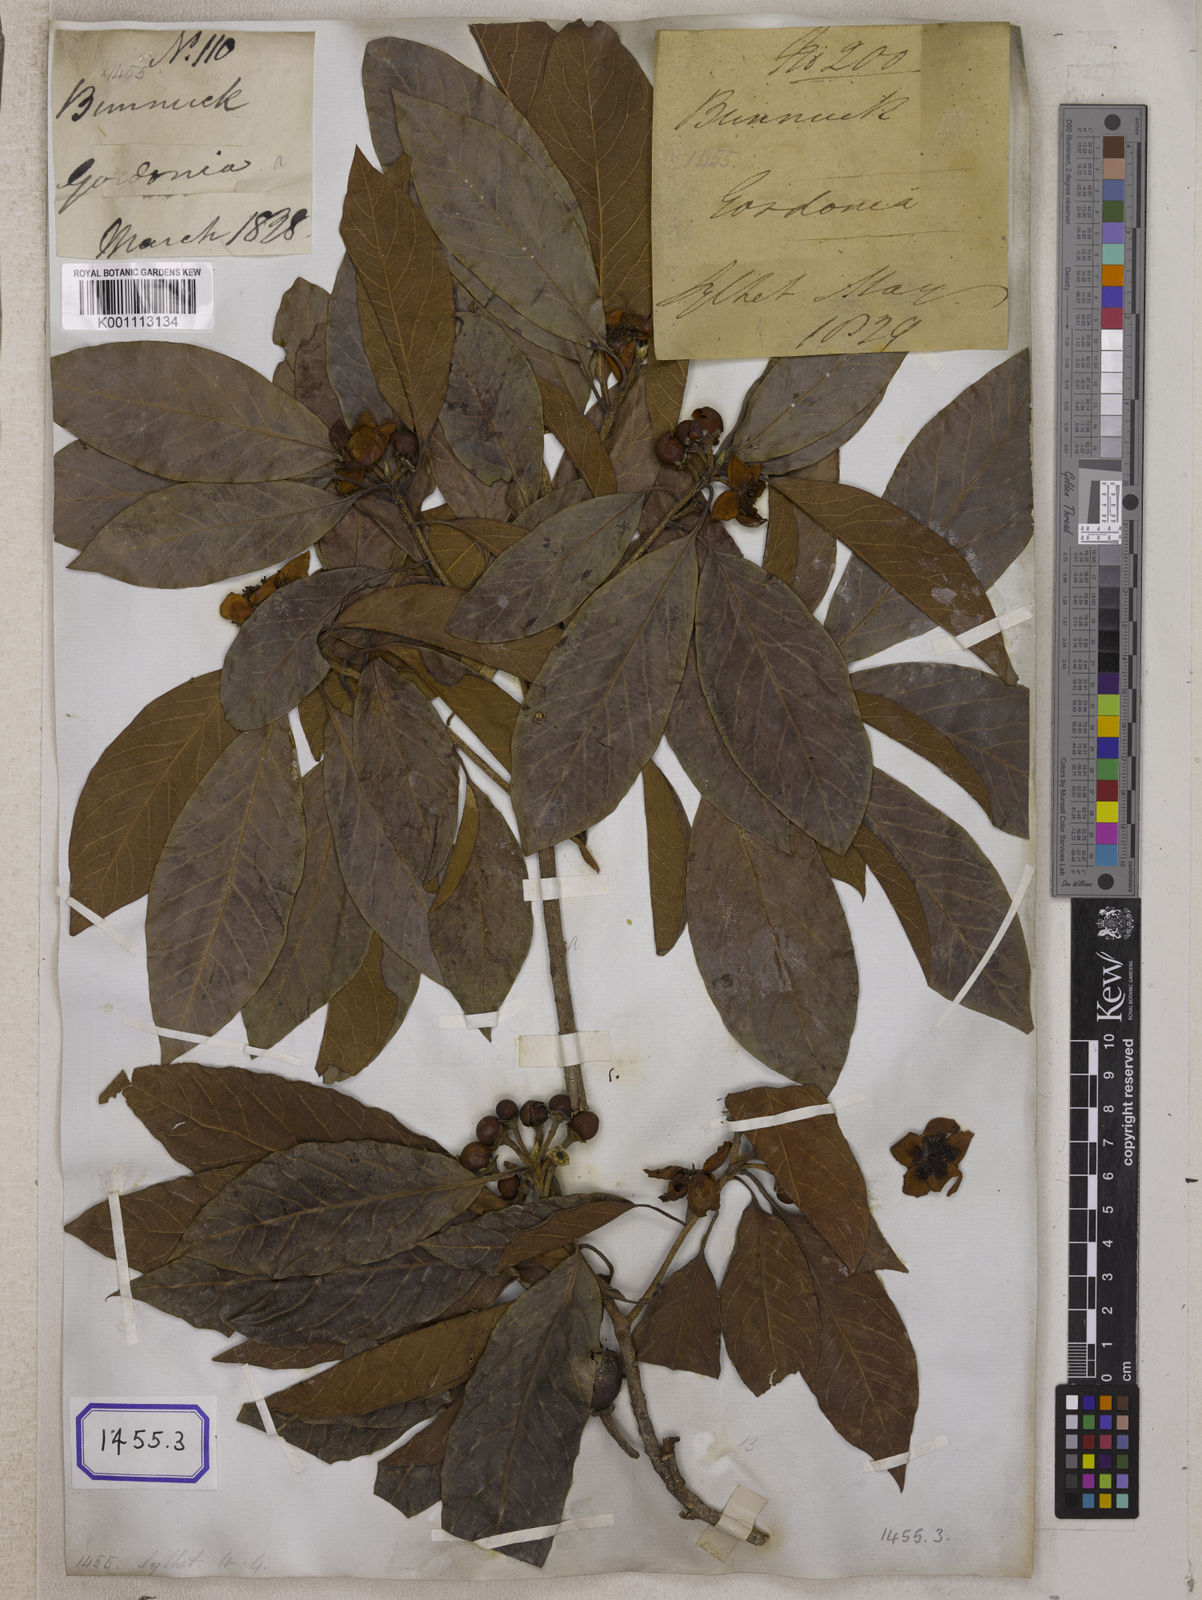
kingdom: Plantae
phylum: Tracheophyta
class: Magnoliopsida
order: Ericales
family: Theaceae
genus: Schima
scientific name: Schima wallichii
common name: Schima
